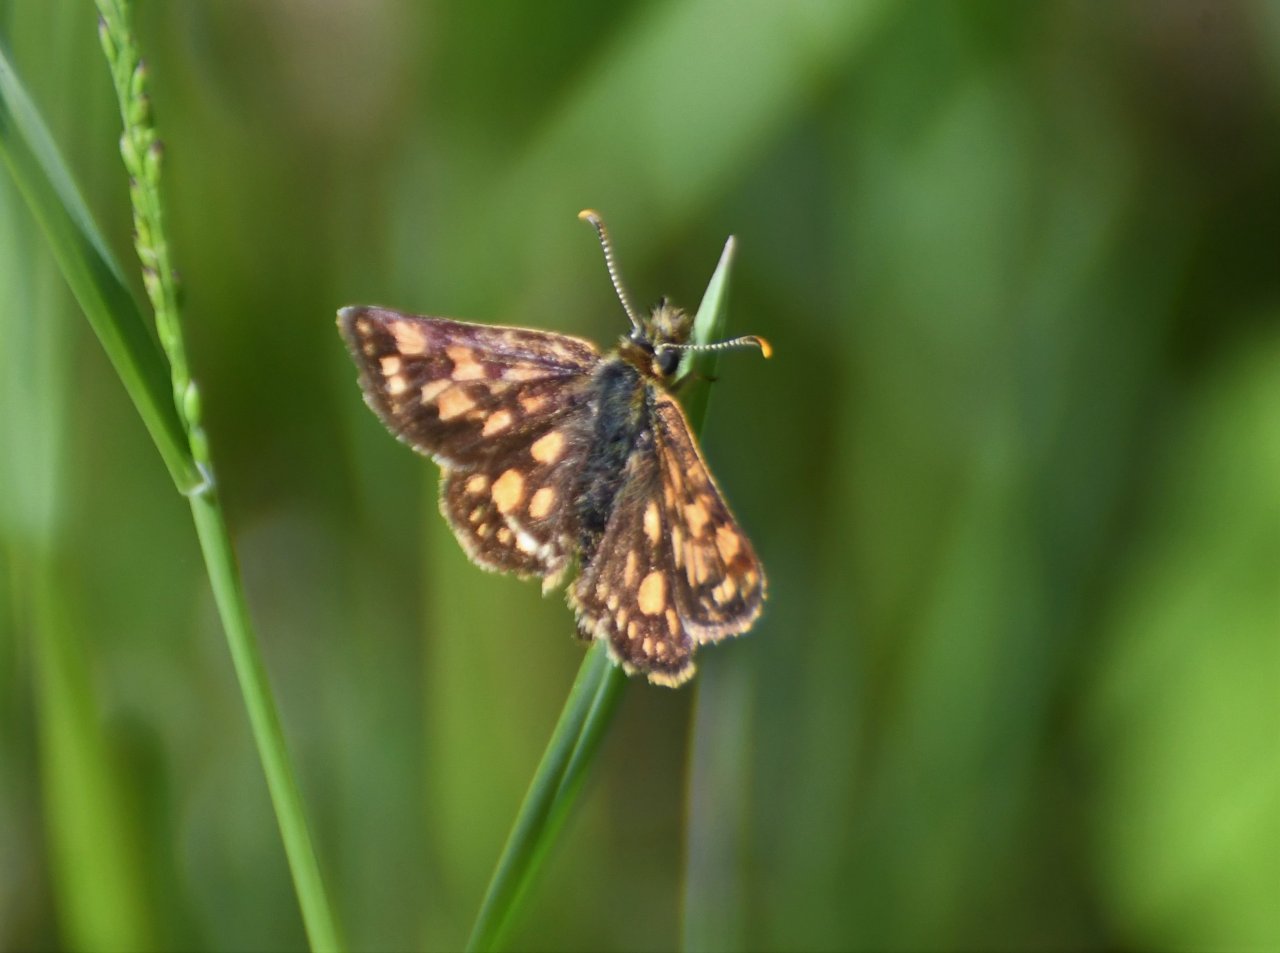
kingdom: Animalia
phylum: Arthropoda
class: Insecta
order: Lepidoptera
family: Hesperiidae
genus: Carterocephalus
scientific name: Carterocephalus palaemon
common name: Chequered Skipper
